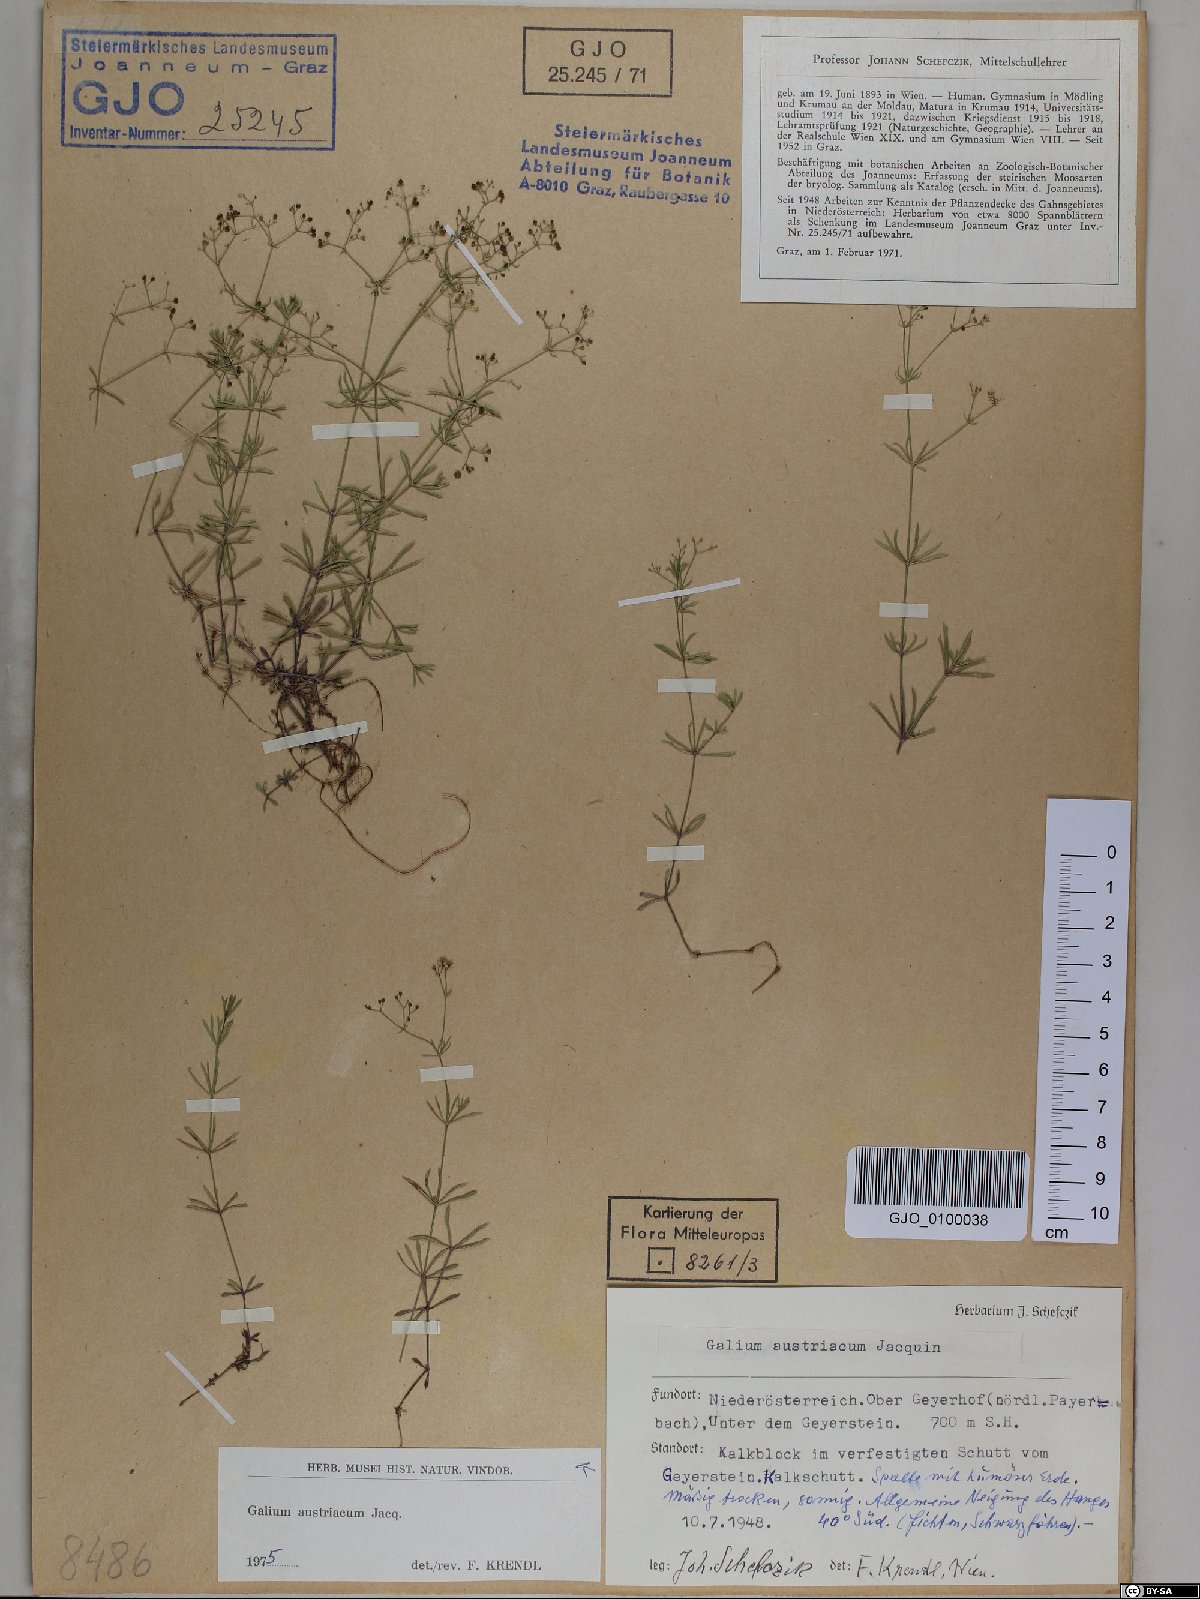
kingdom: Plantae
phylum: Tracheophyta
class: Magnoliopsida
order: Gentianales
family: Rubiaceae
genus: Galium
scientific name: Galium austriacum
